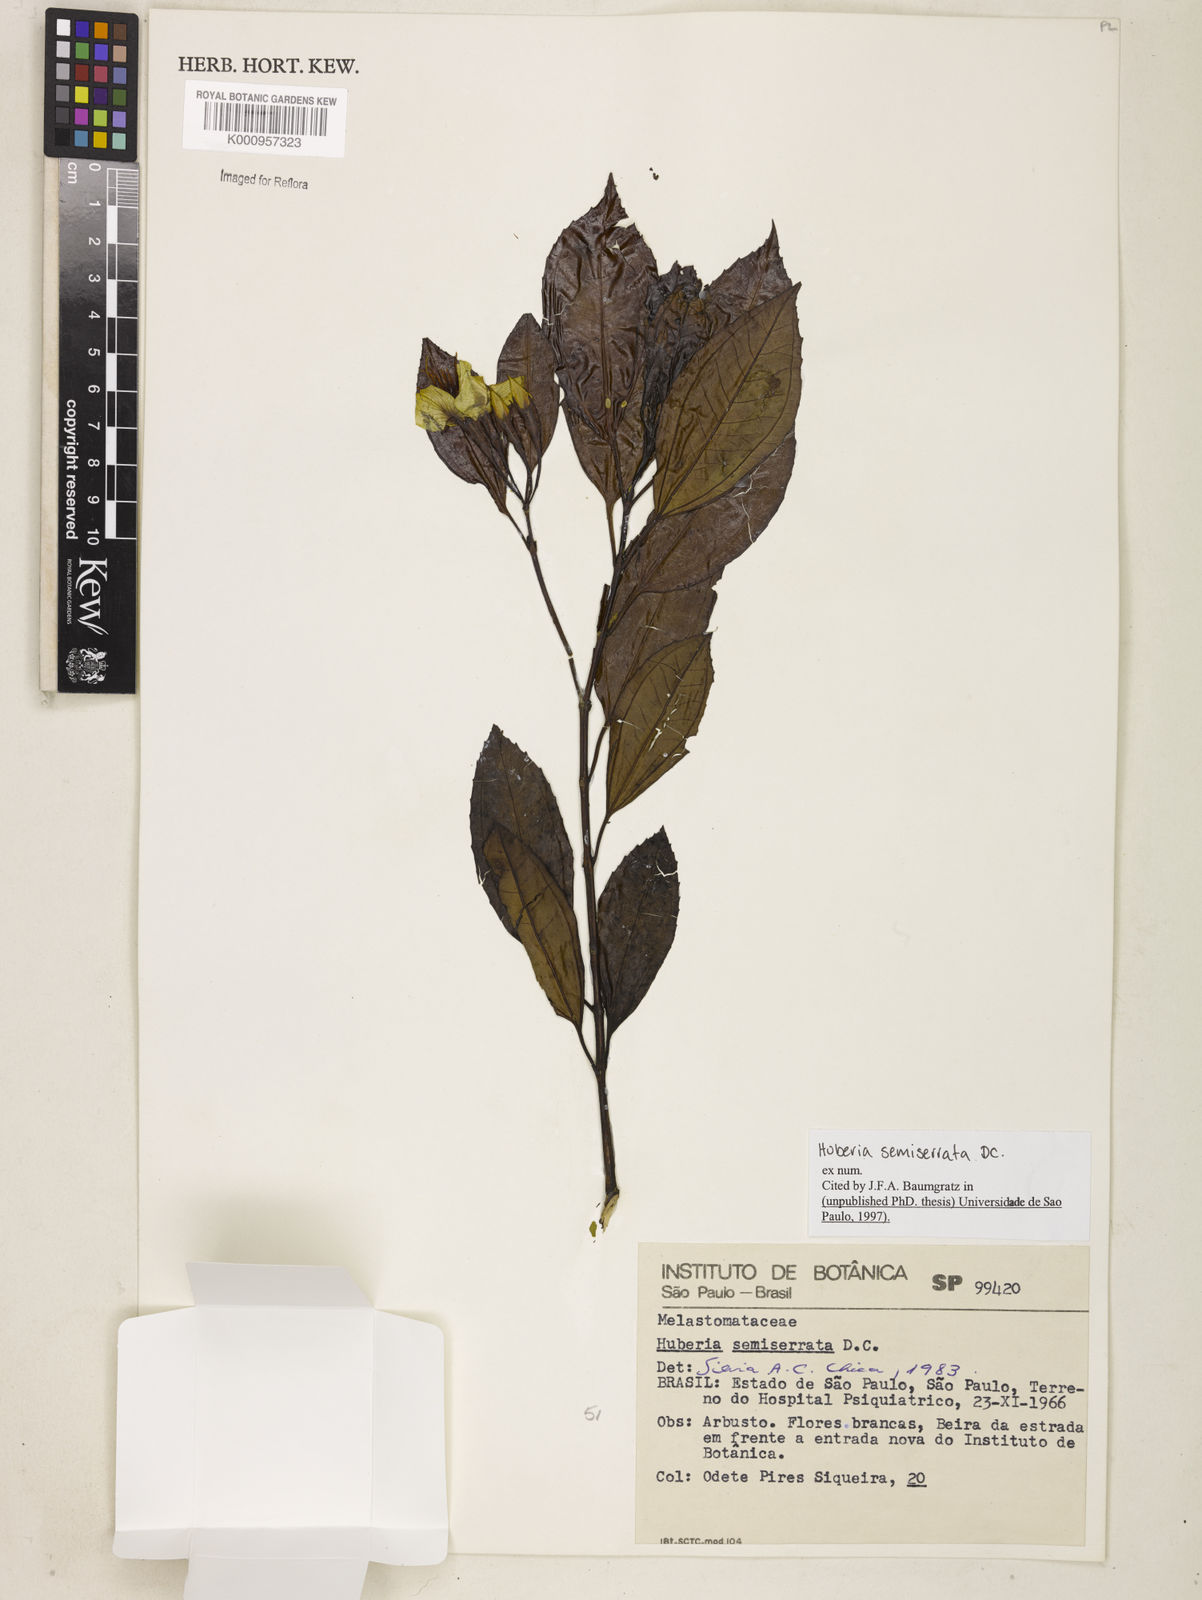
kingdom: Plantae
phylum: Tracheophyta
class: Magnoliopsida
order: Myrtales
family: Melastomataceae
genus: Huberia
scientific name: Huberia semiserrata
